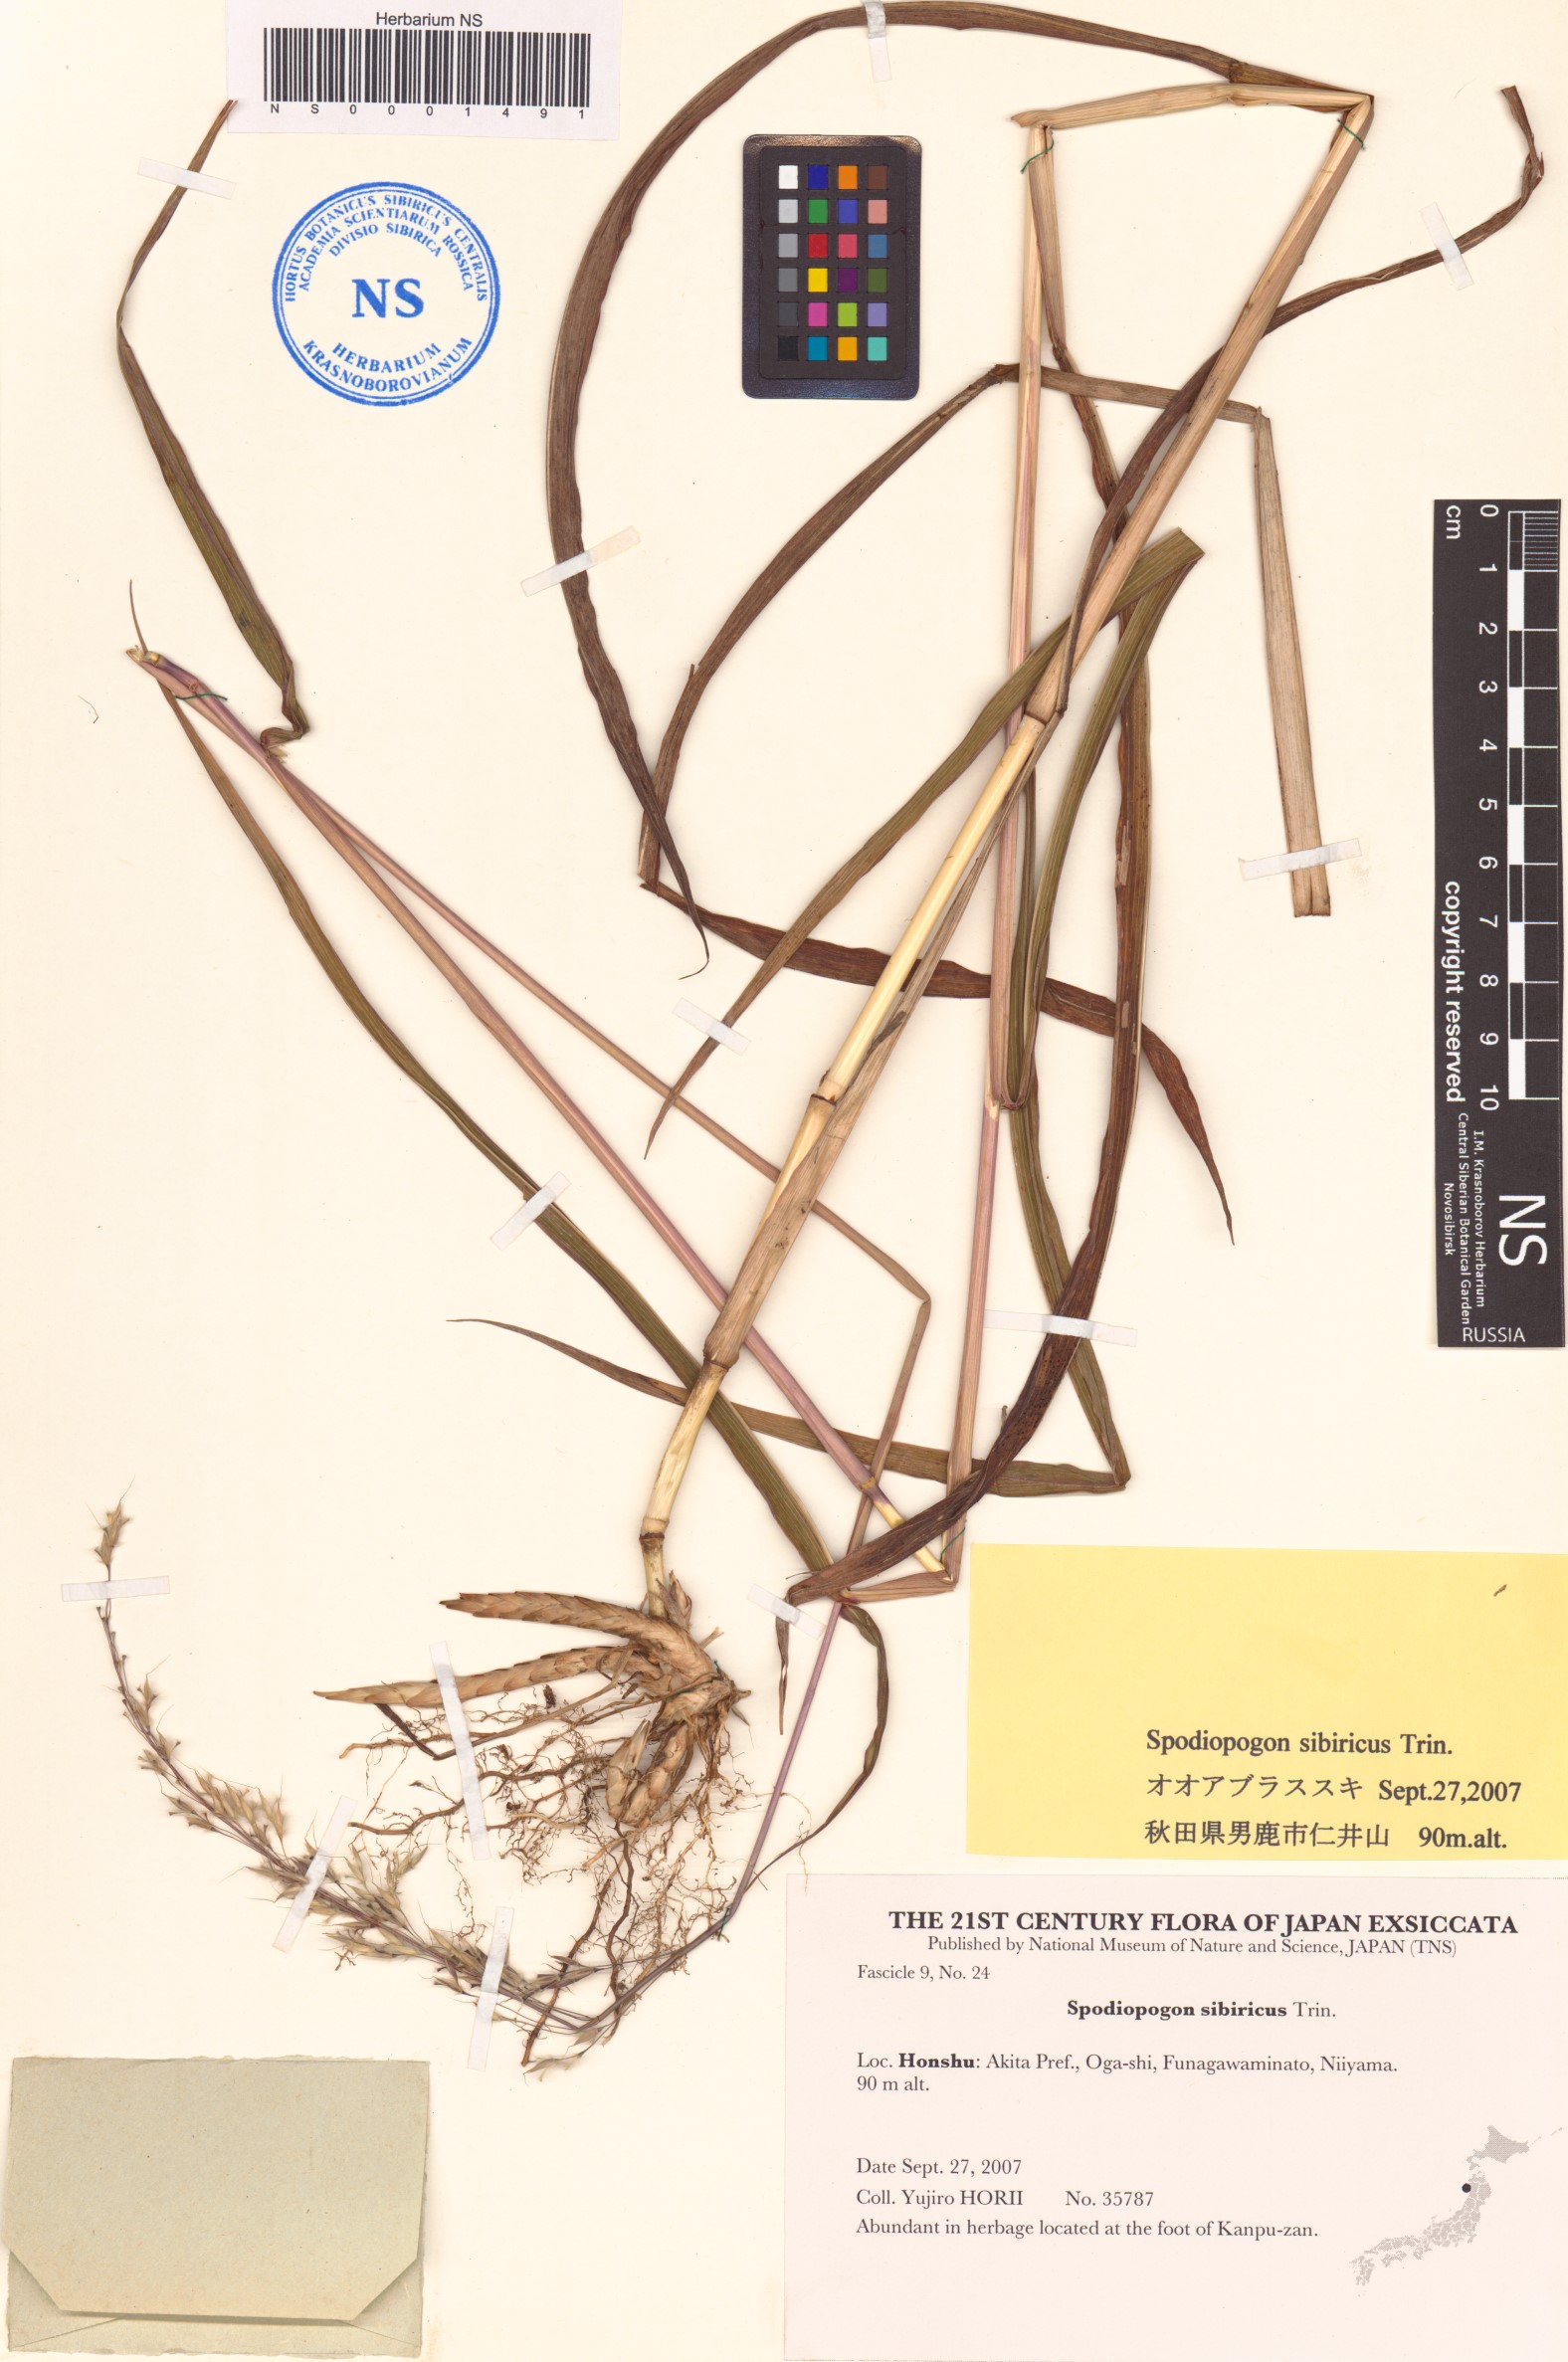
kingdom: Plantae
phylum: Tracheophyta
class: Liliopsida
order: Poales
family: Poaceae
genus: Spodiopogon
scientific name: Spodiopogon sibiricus
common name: Siberian graybeard
